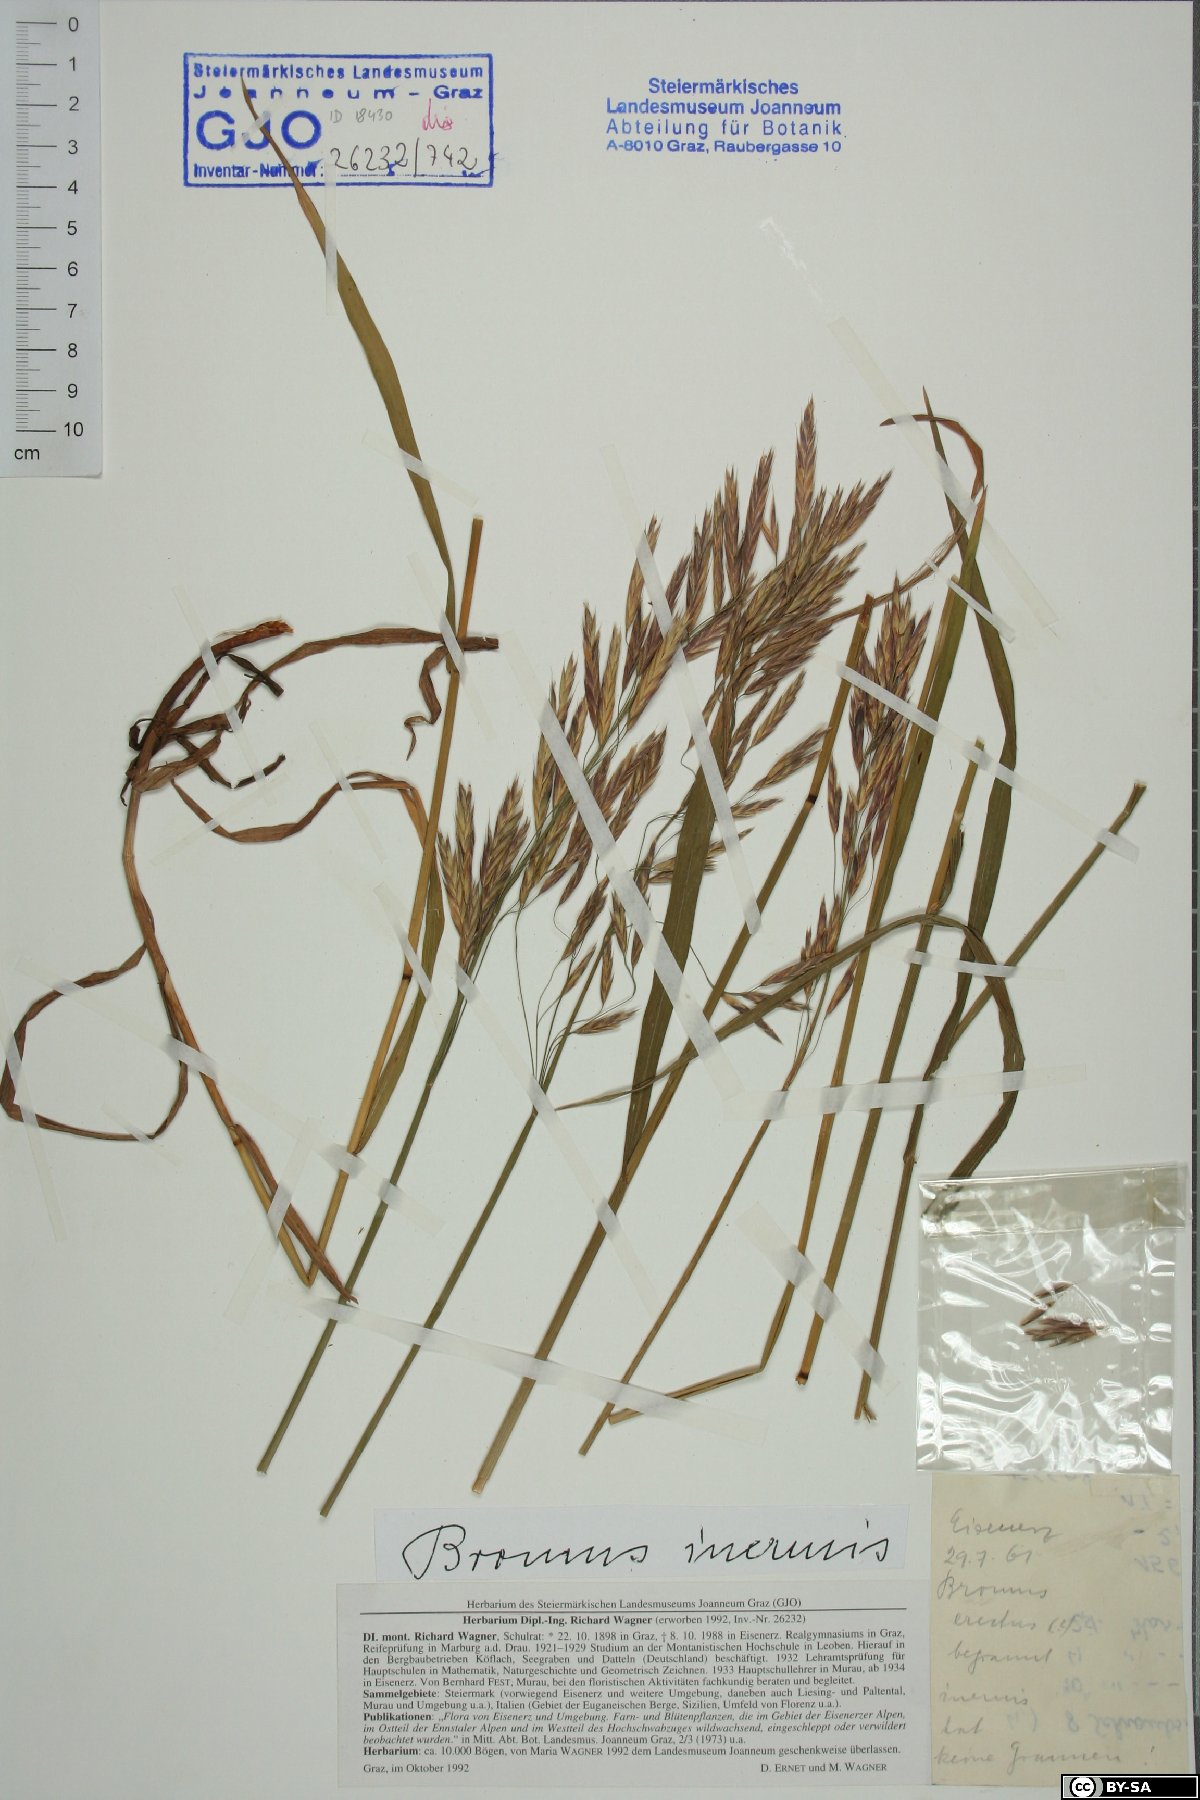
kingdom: Plantae
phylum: Tracheophyta
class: Liliopsida
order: Poales
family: Poaceae
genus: Bromus
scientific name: Bromus inermis
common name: Smooth brome
